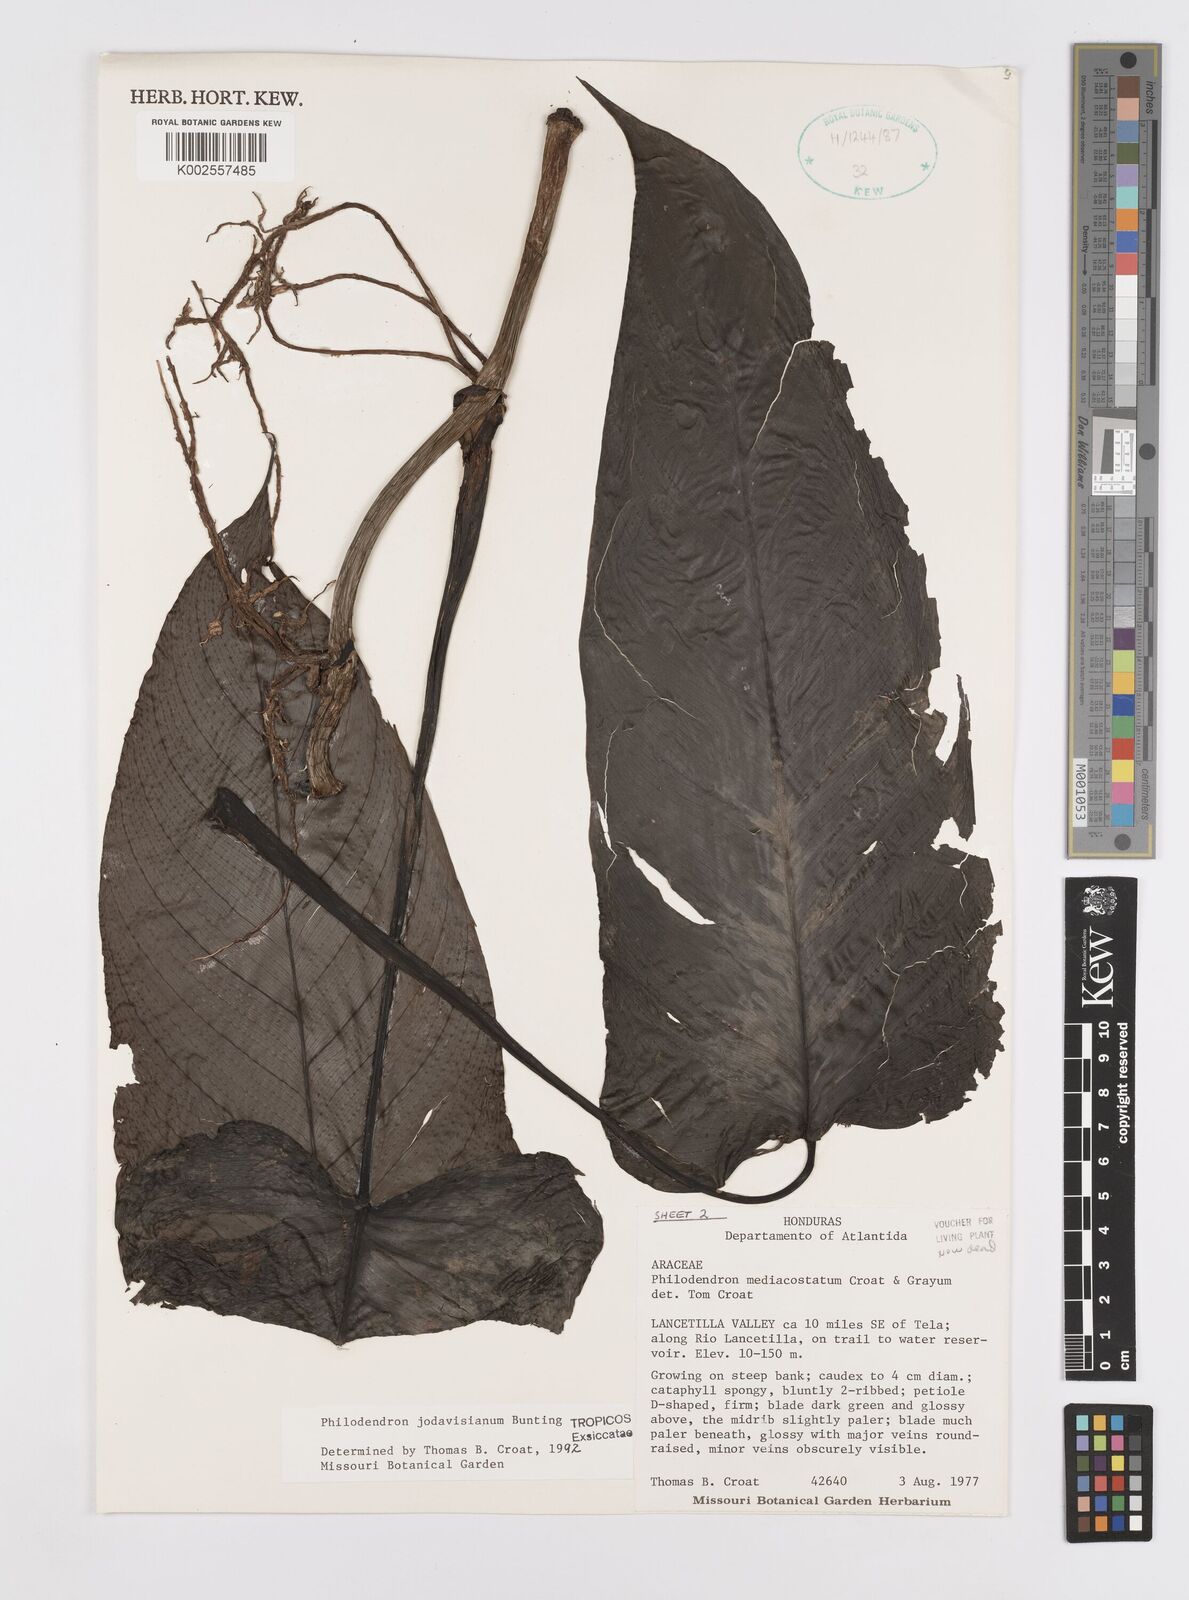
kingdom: Plantae
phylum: Tracheophyta
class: Liliopsida
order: Alismatales
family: Araceae
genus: Philodendron
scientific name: Philodendron jodavisianum
